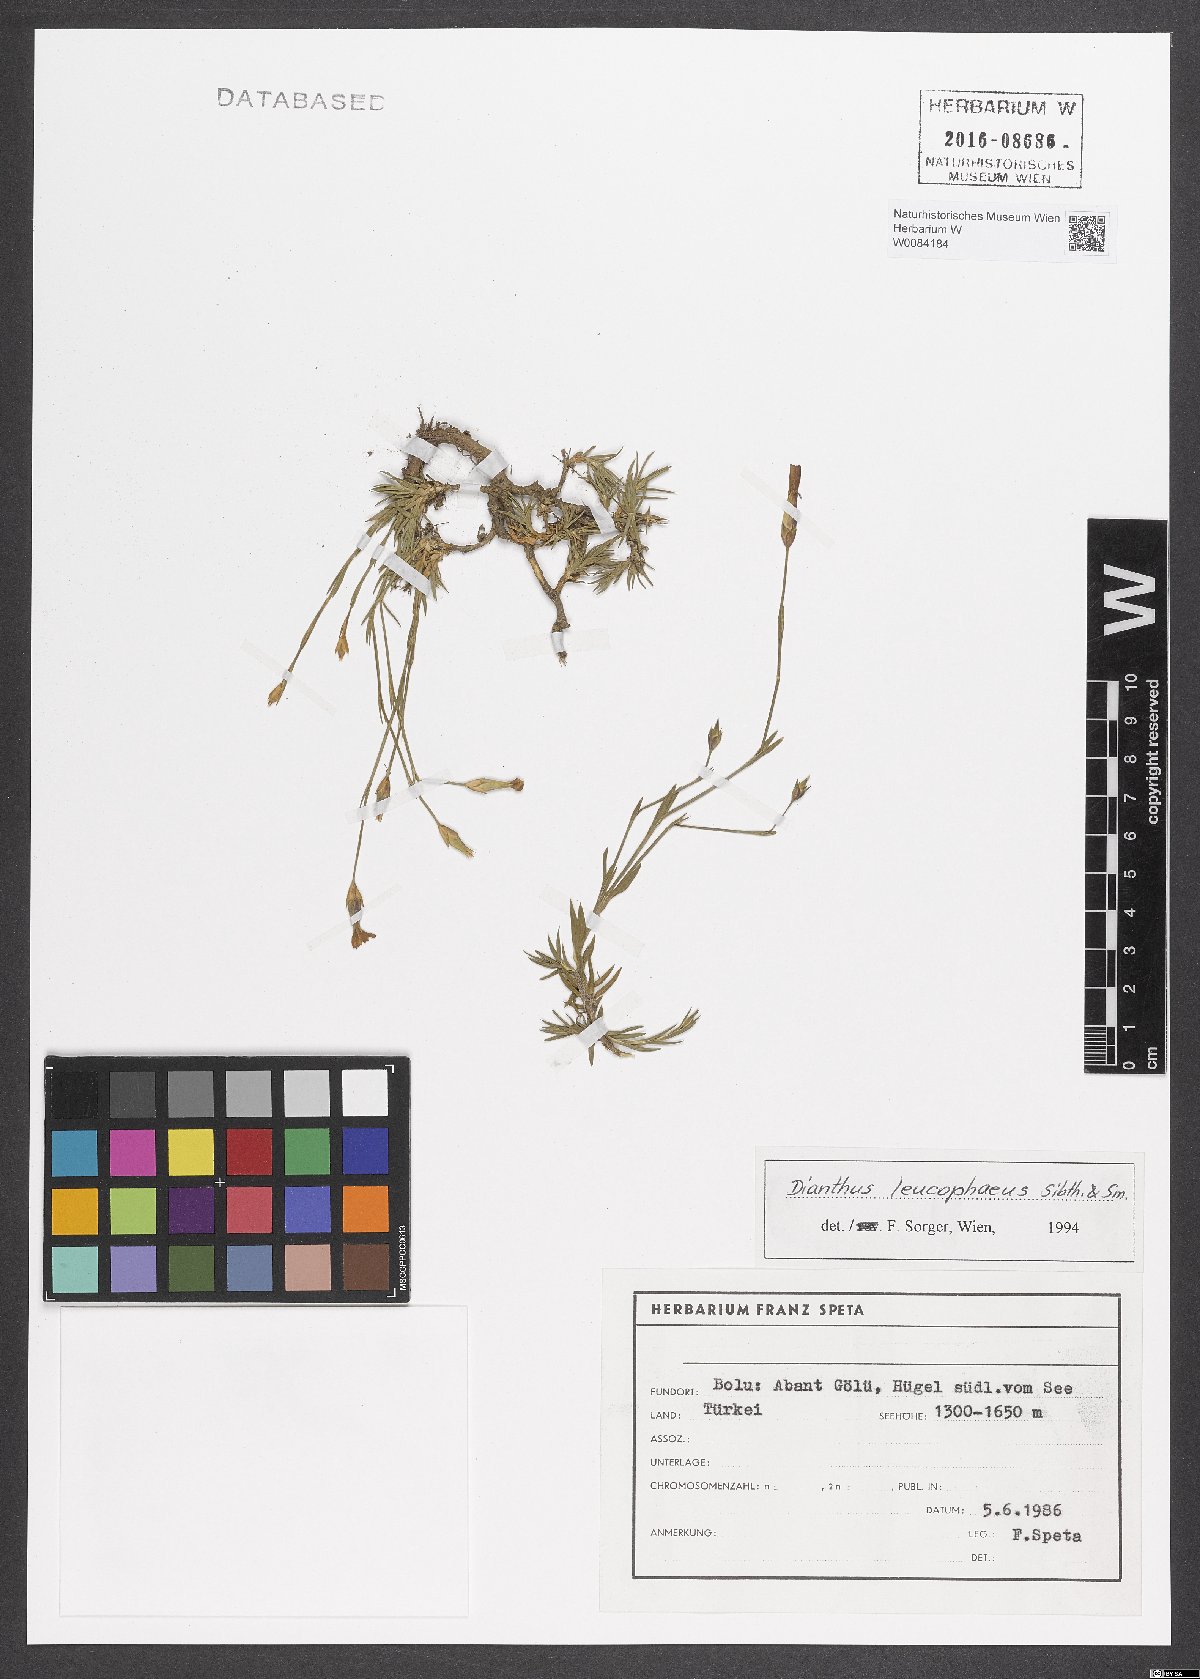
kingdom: Plantae
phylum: Tracheophyta
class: Magnoliopsida
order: Caryophyllales
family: Caryophyllaceae
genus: Dianthus
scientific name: Dianthus leucophaeus
